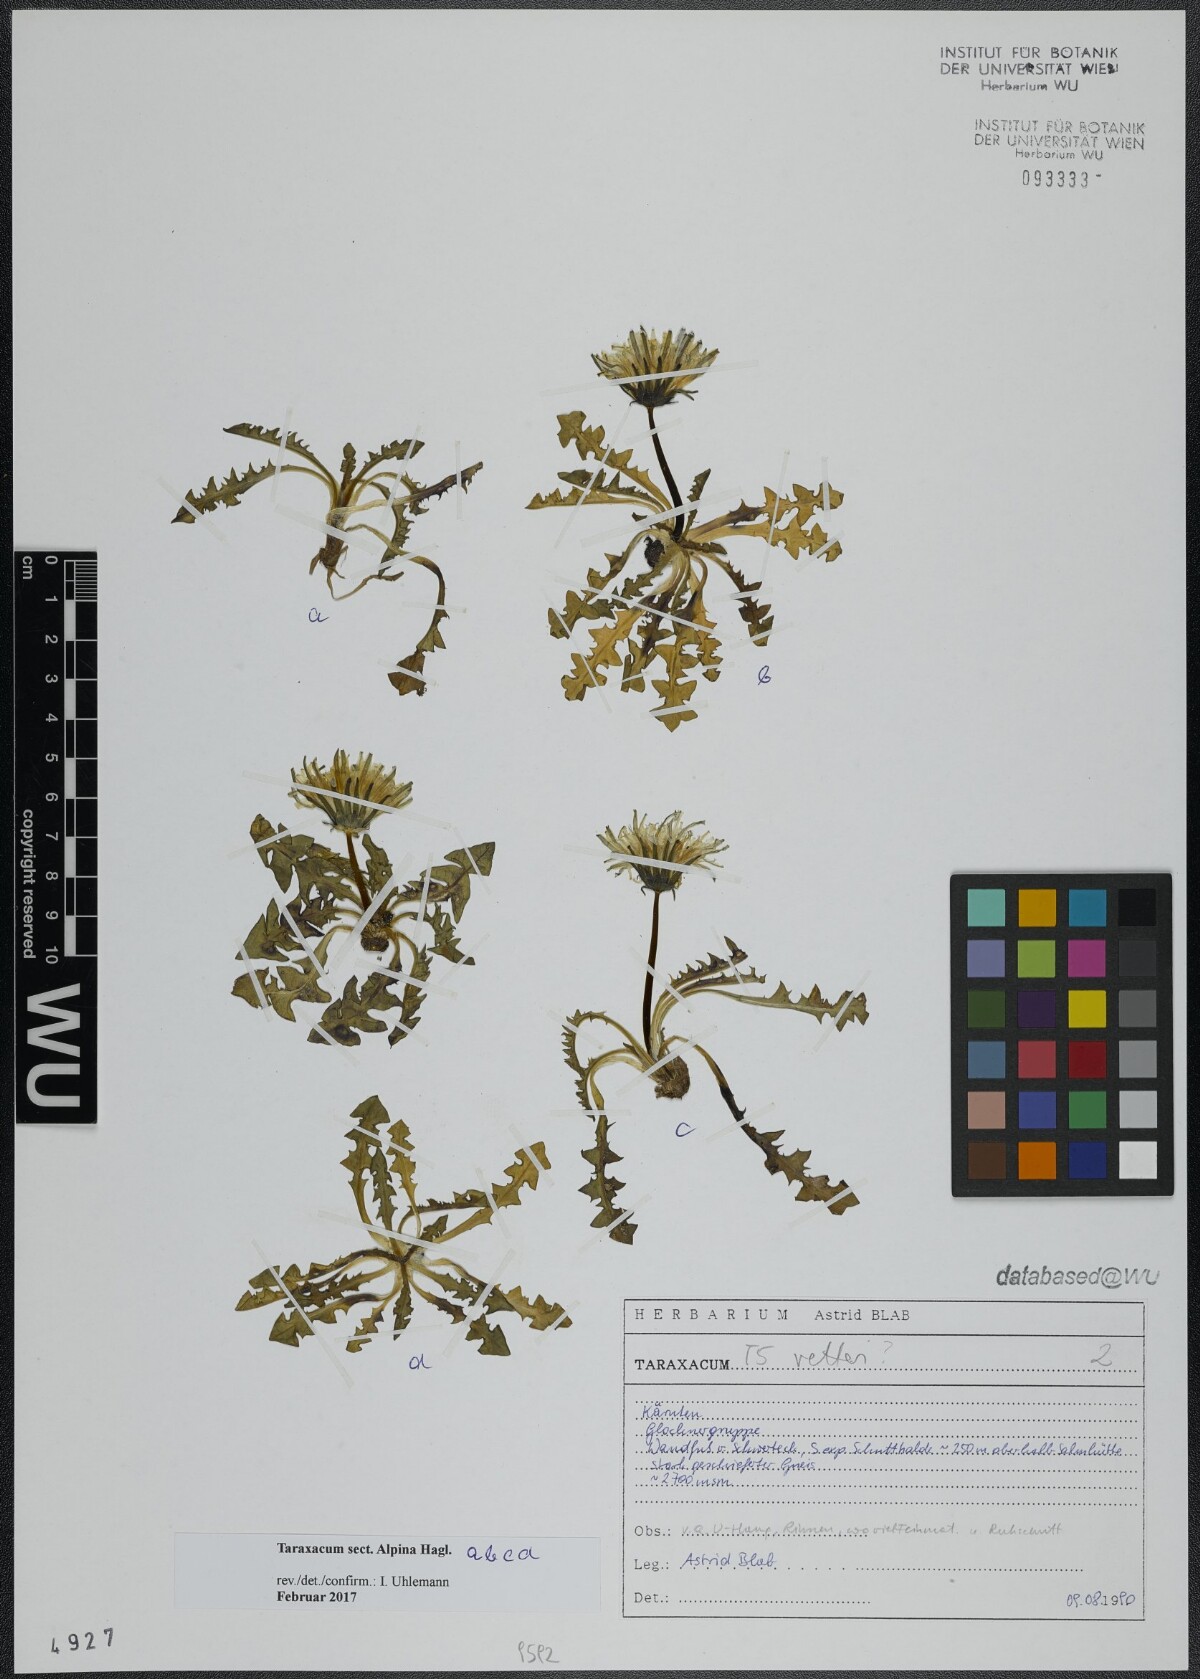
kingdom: Plantae
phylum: Tracheophyta
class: Magnoliopsida
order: Asterales
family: Asteraceae
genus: Taraxacum
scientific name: Taraxacum
